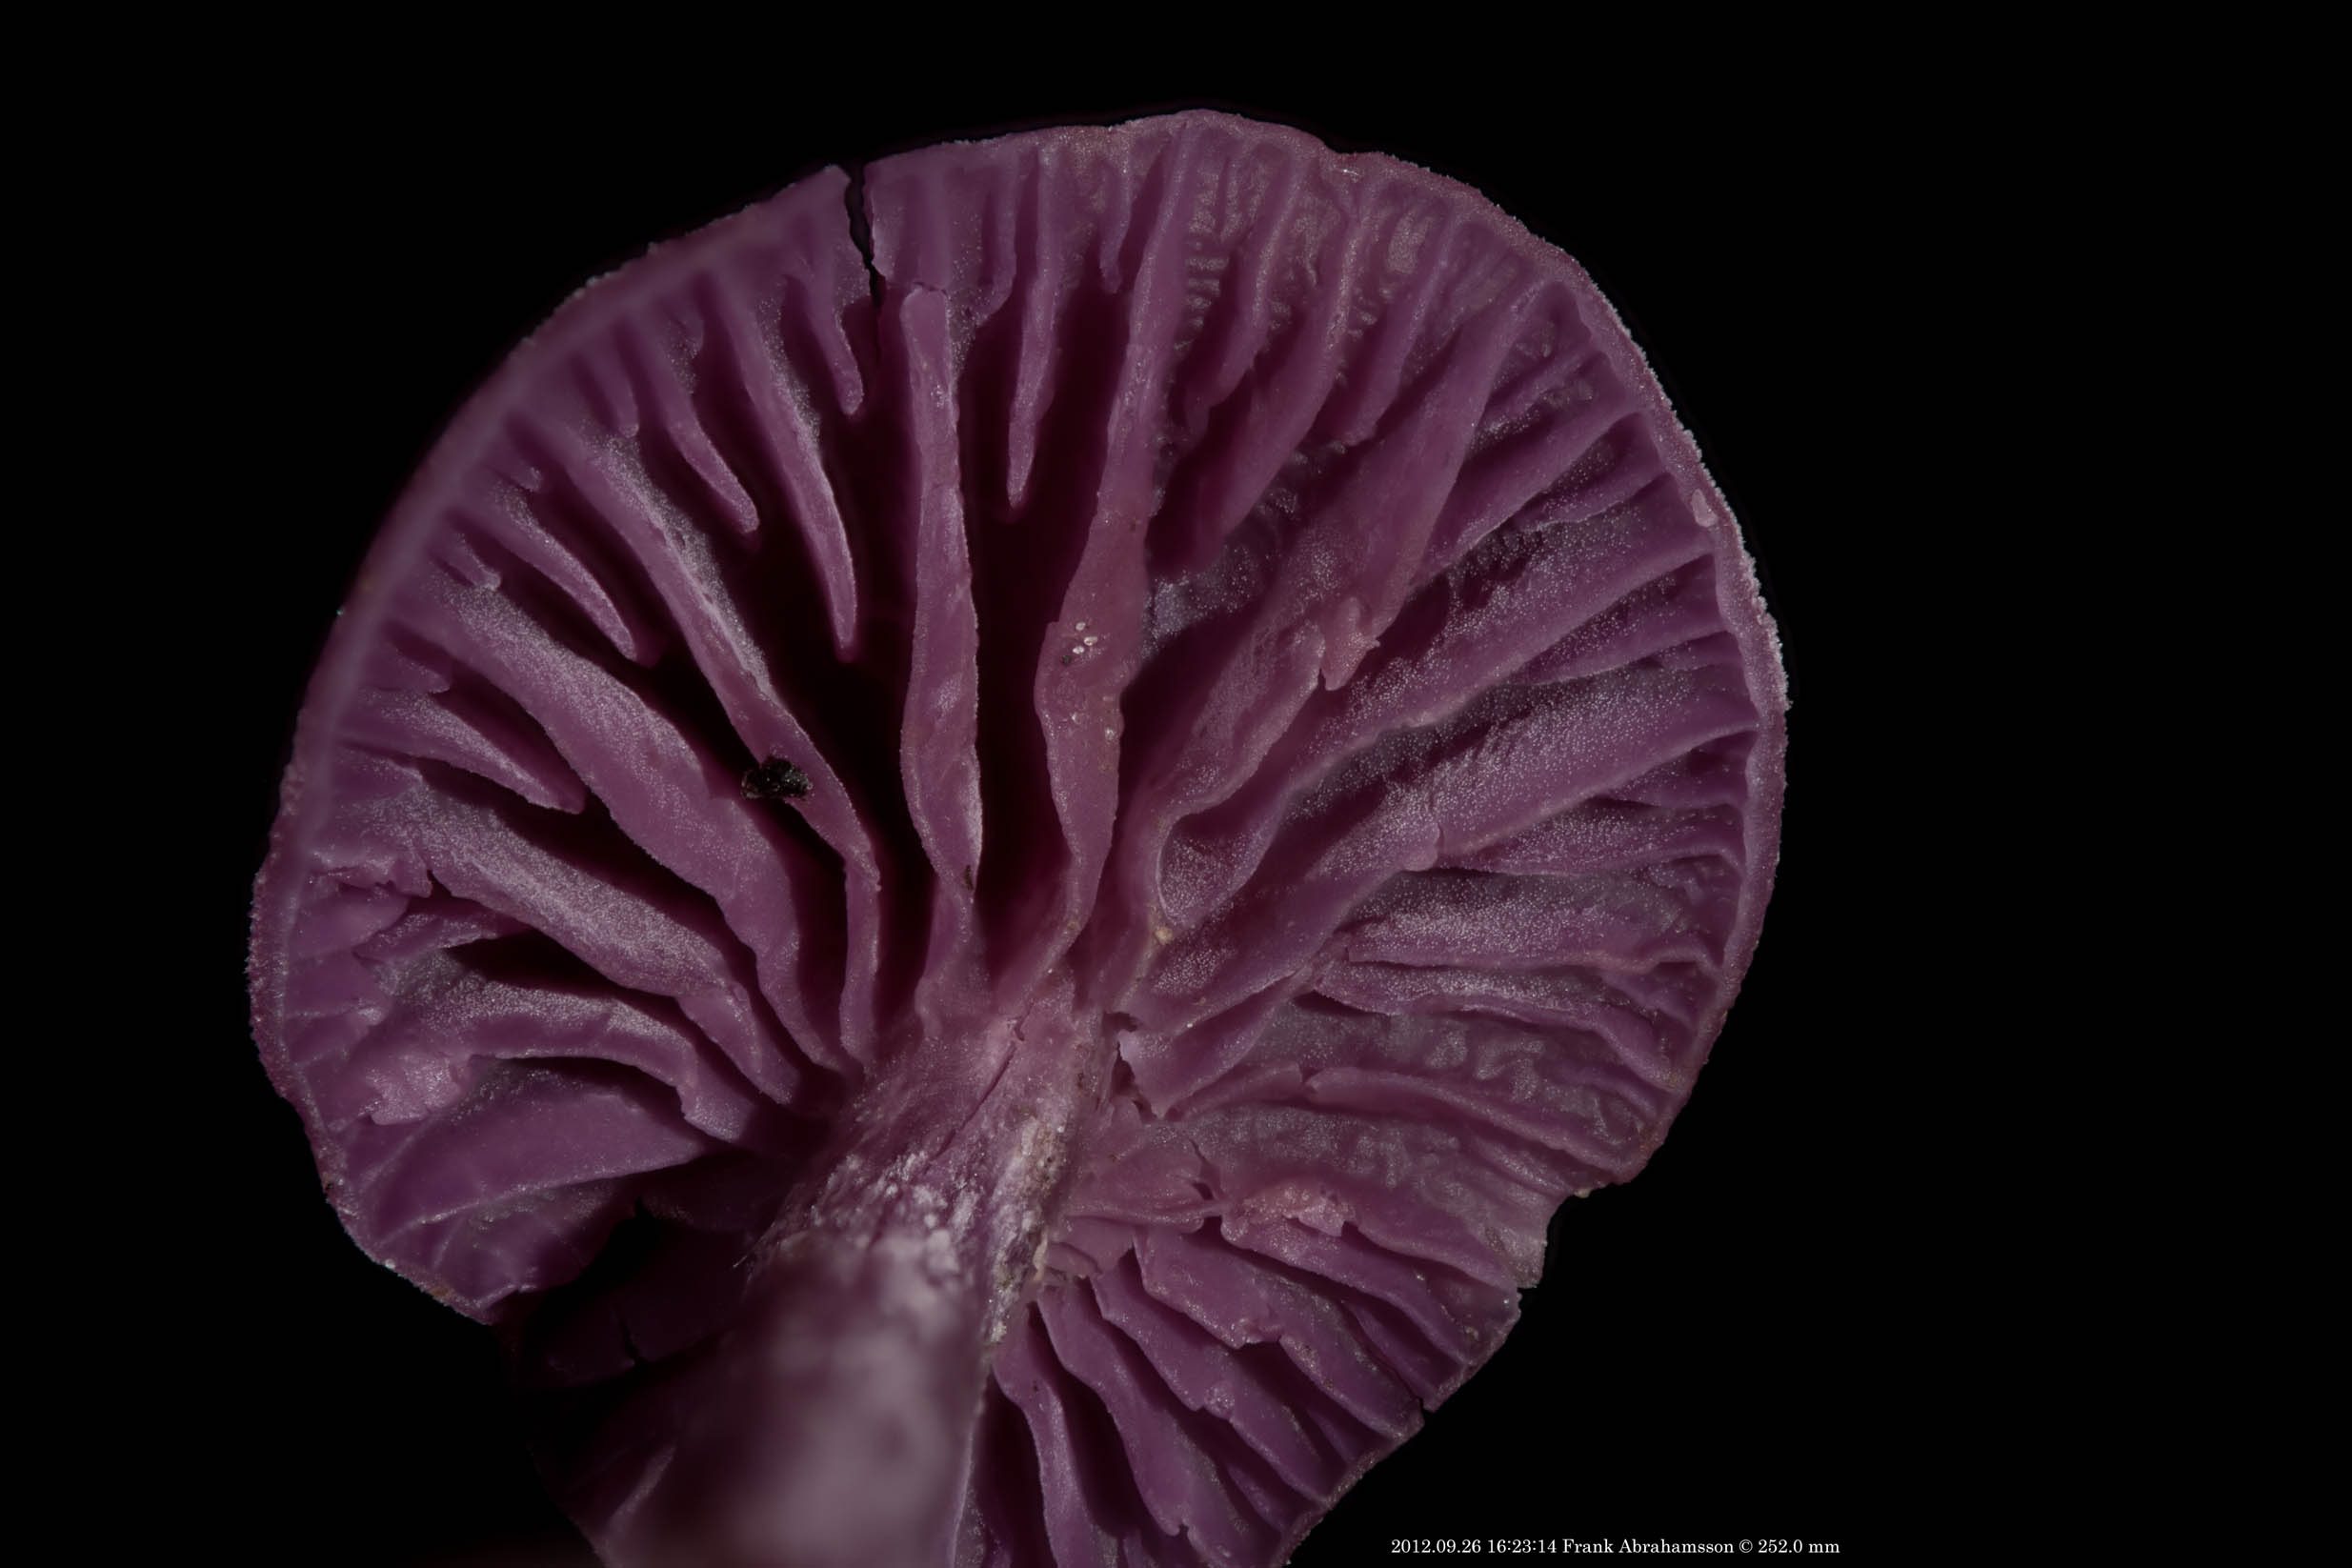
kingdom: Fungi
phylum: Basidiomycota
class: Agaricomycetes
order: Agaricales
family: Hydnangiaceae
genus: Laccaria
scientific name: Laccaria amethystina
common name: violet ametysthat
